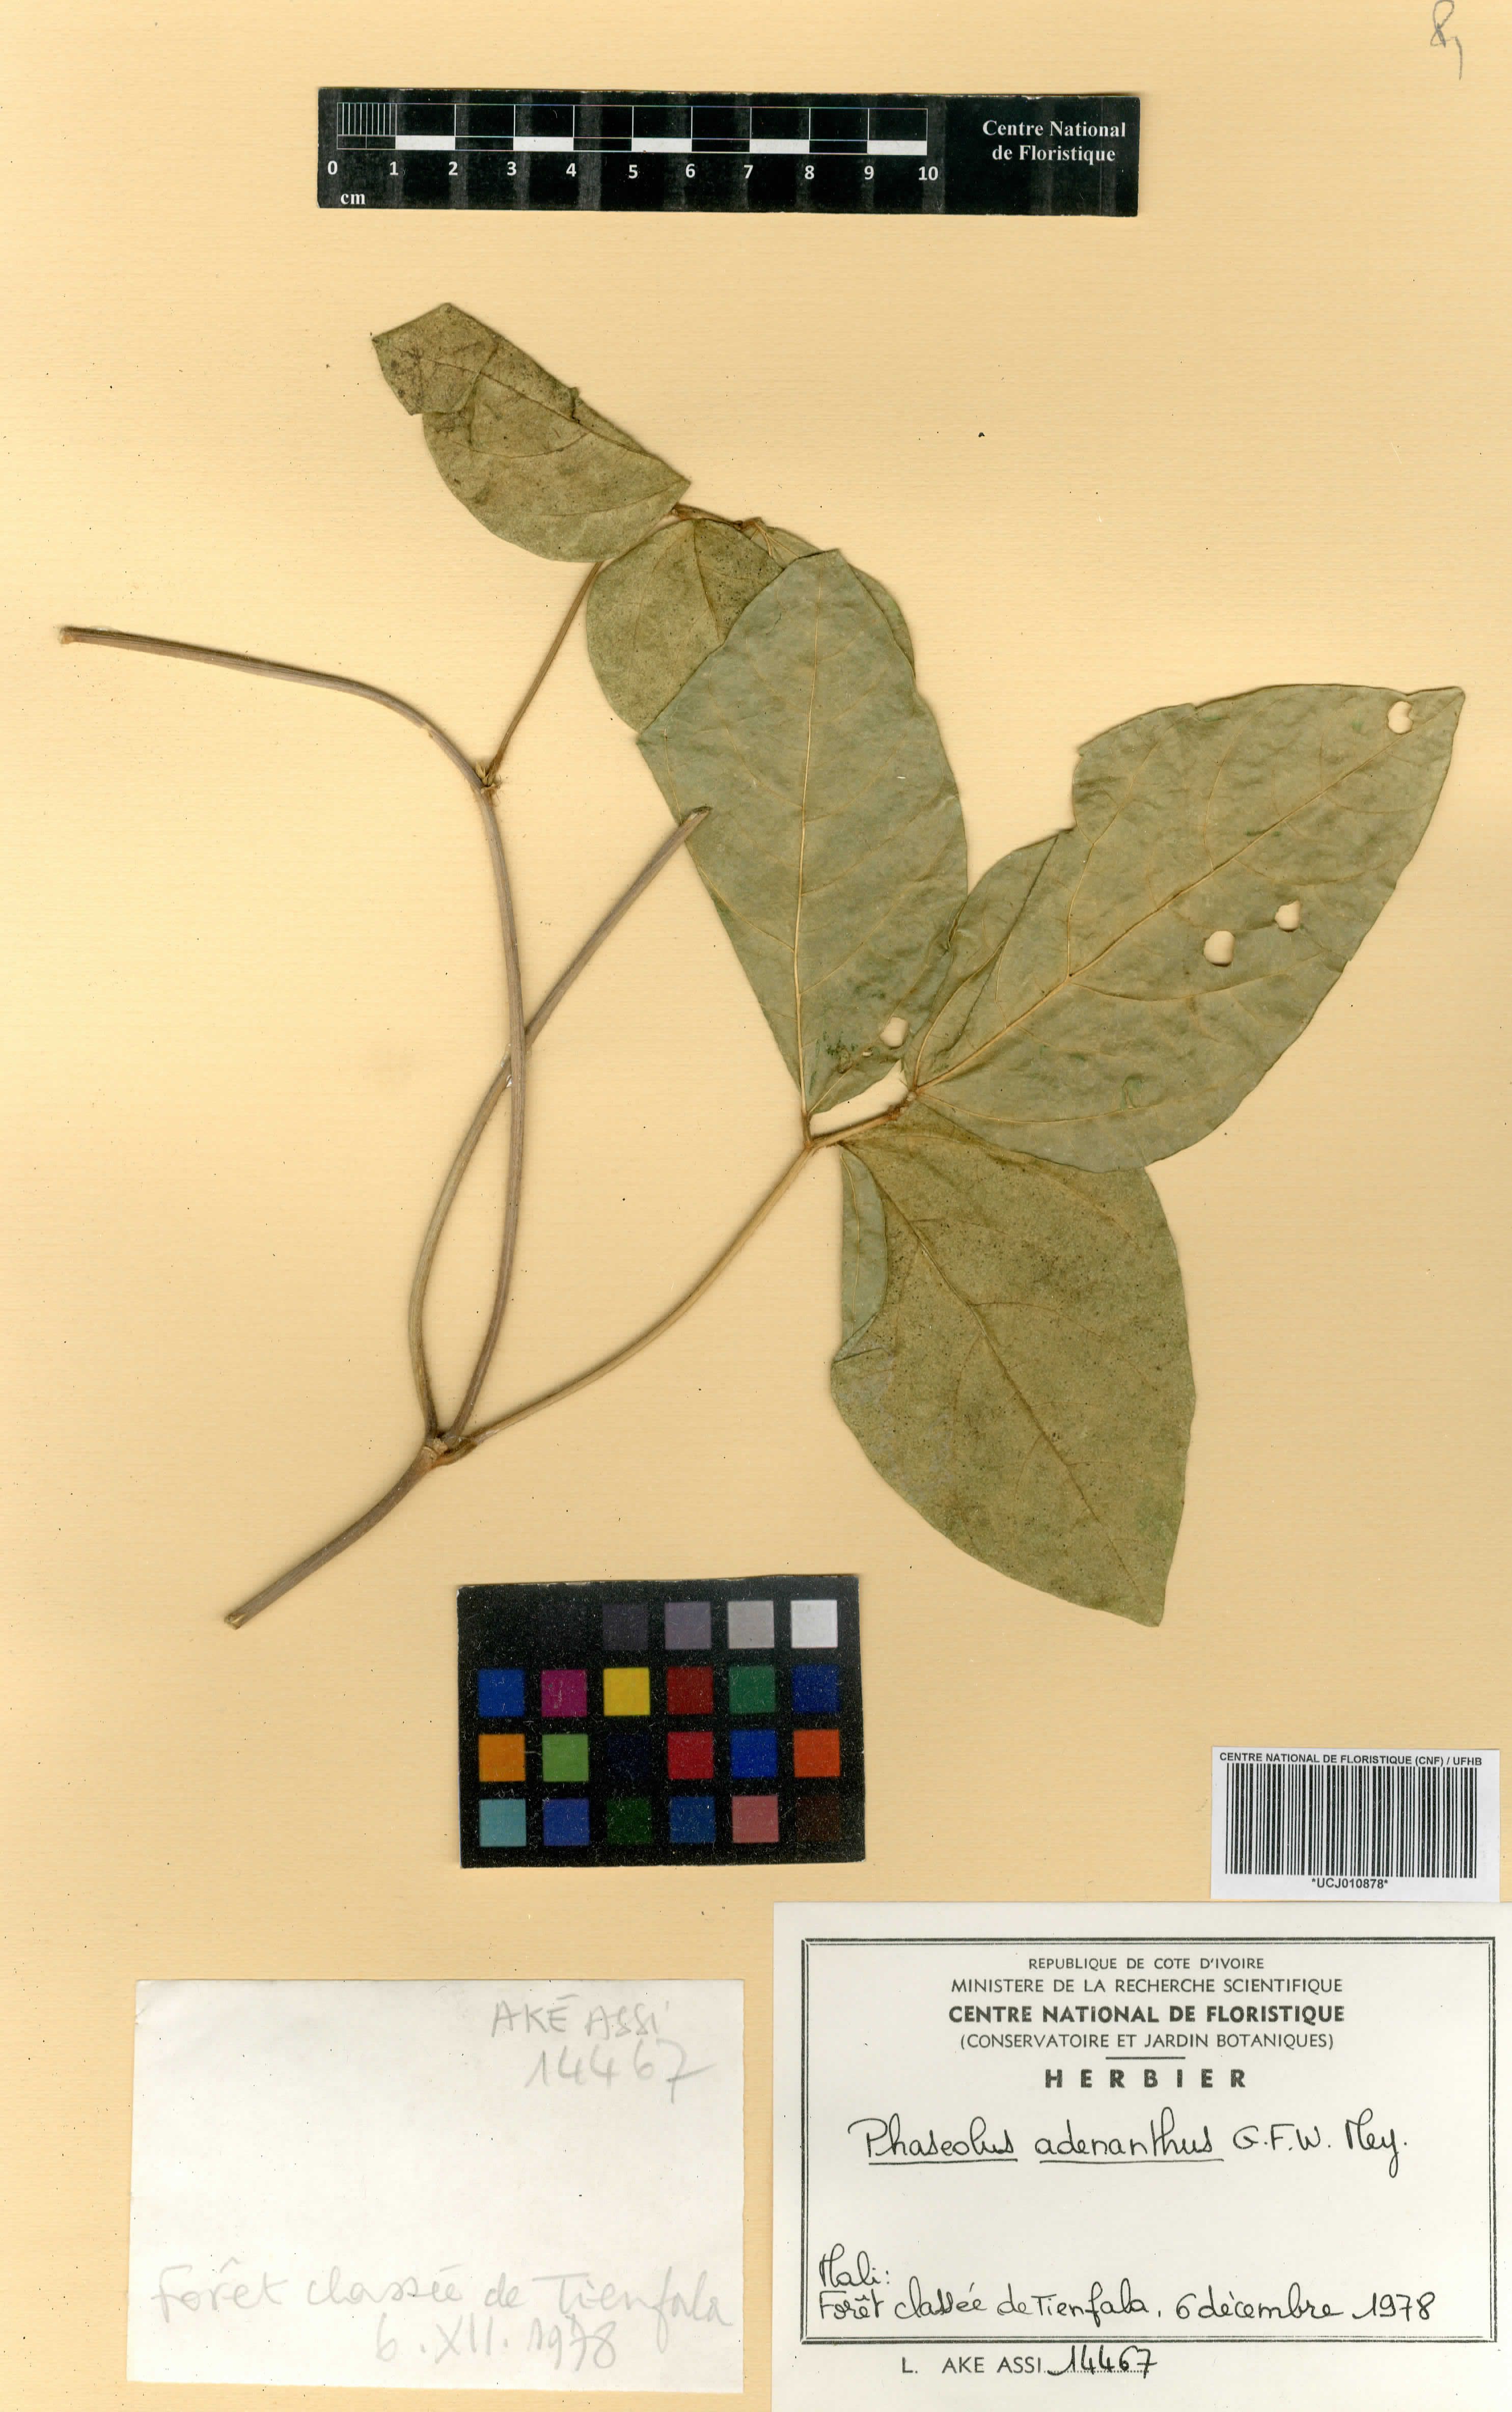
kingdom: Plantae
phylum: Tracheophyta
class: Magnoliopsida
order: Fabales
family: Fabaceae
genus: Leptospron
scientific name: Leptospron adenanthum
